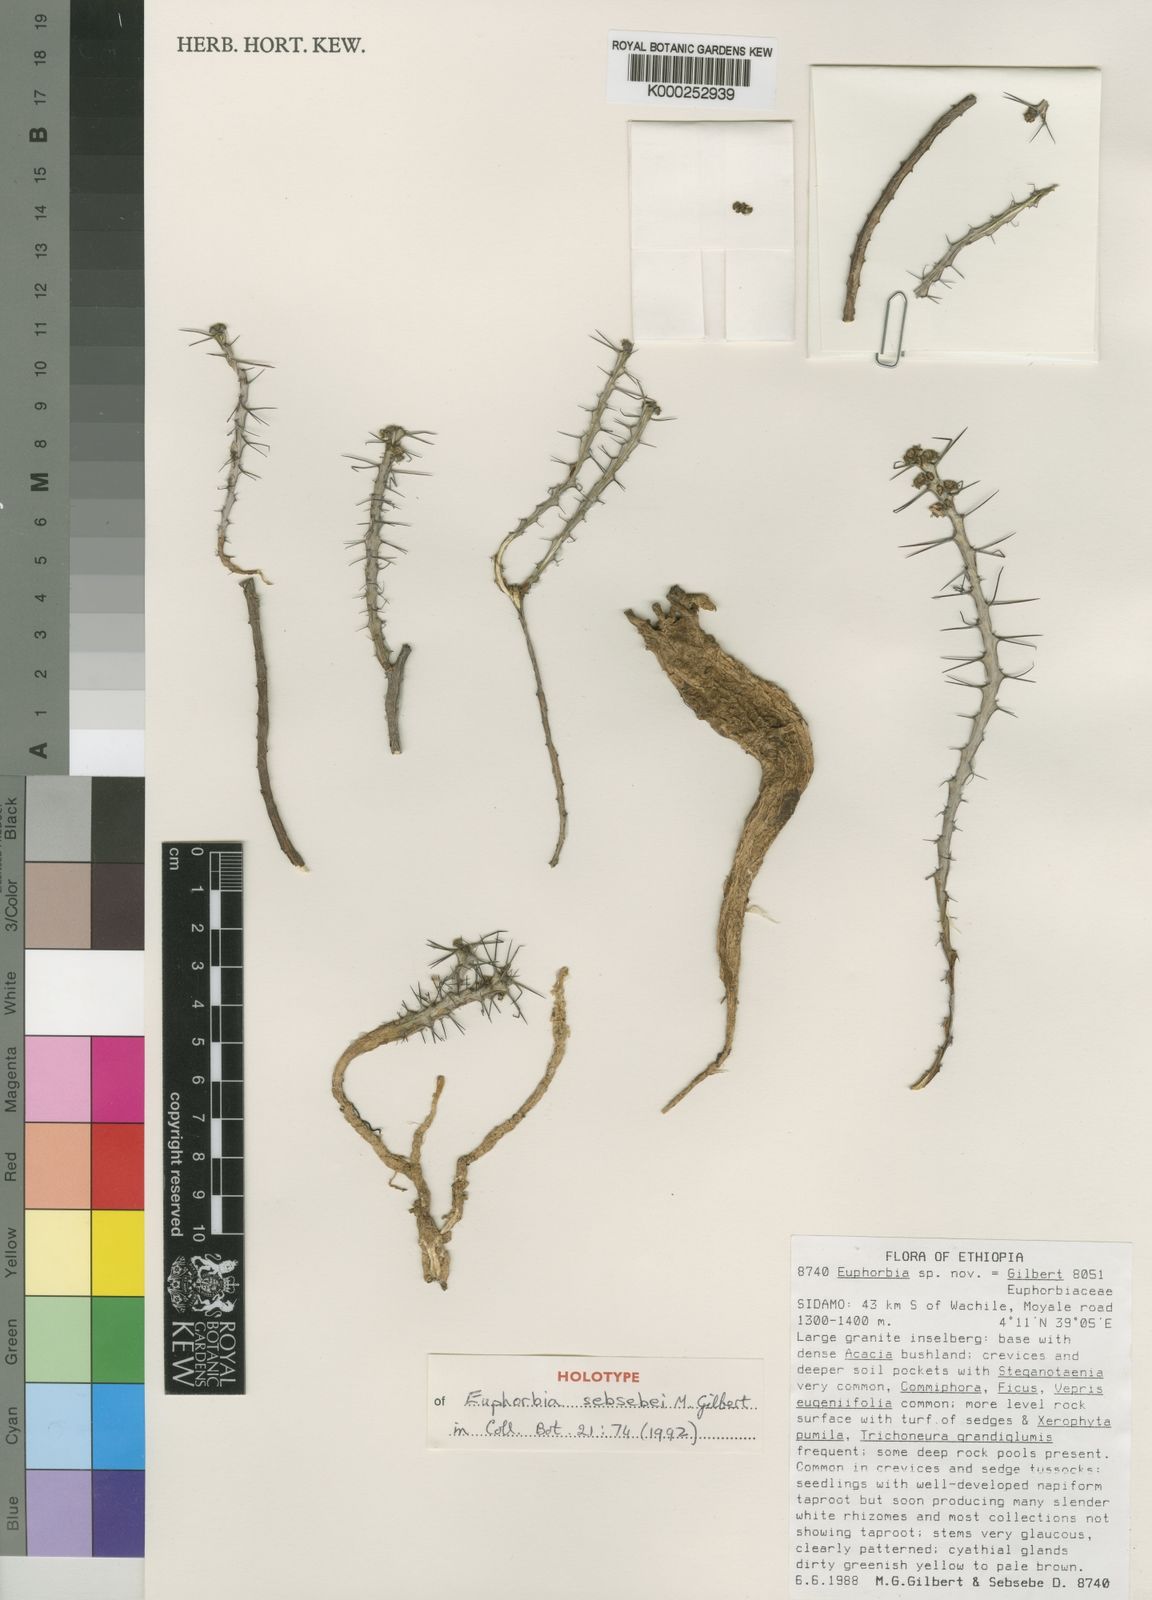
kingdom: Plantae
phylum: Tracheophyta
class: Magnoliopsida
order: Malpighiales
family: Euphorbiaceae
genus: Euphorbia
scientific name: Euphorbia sebsebei
